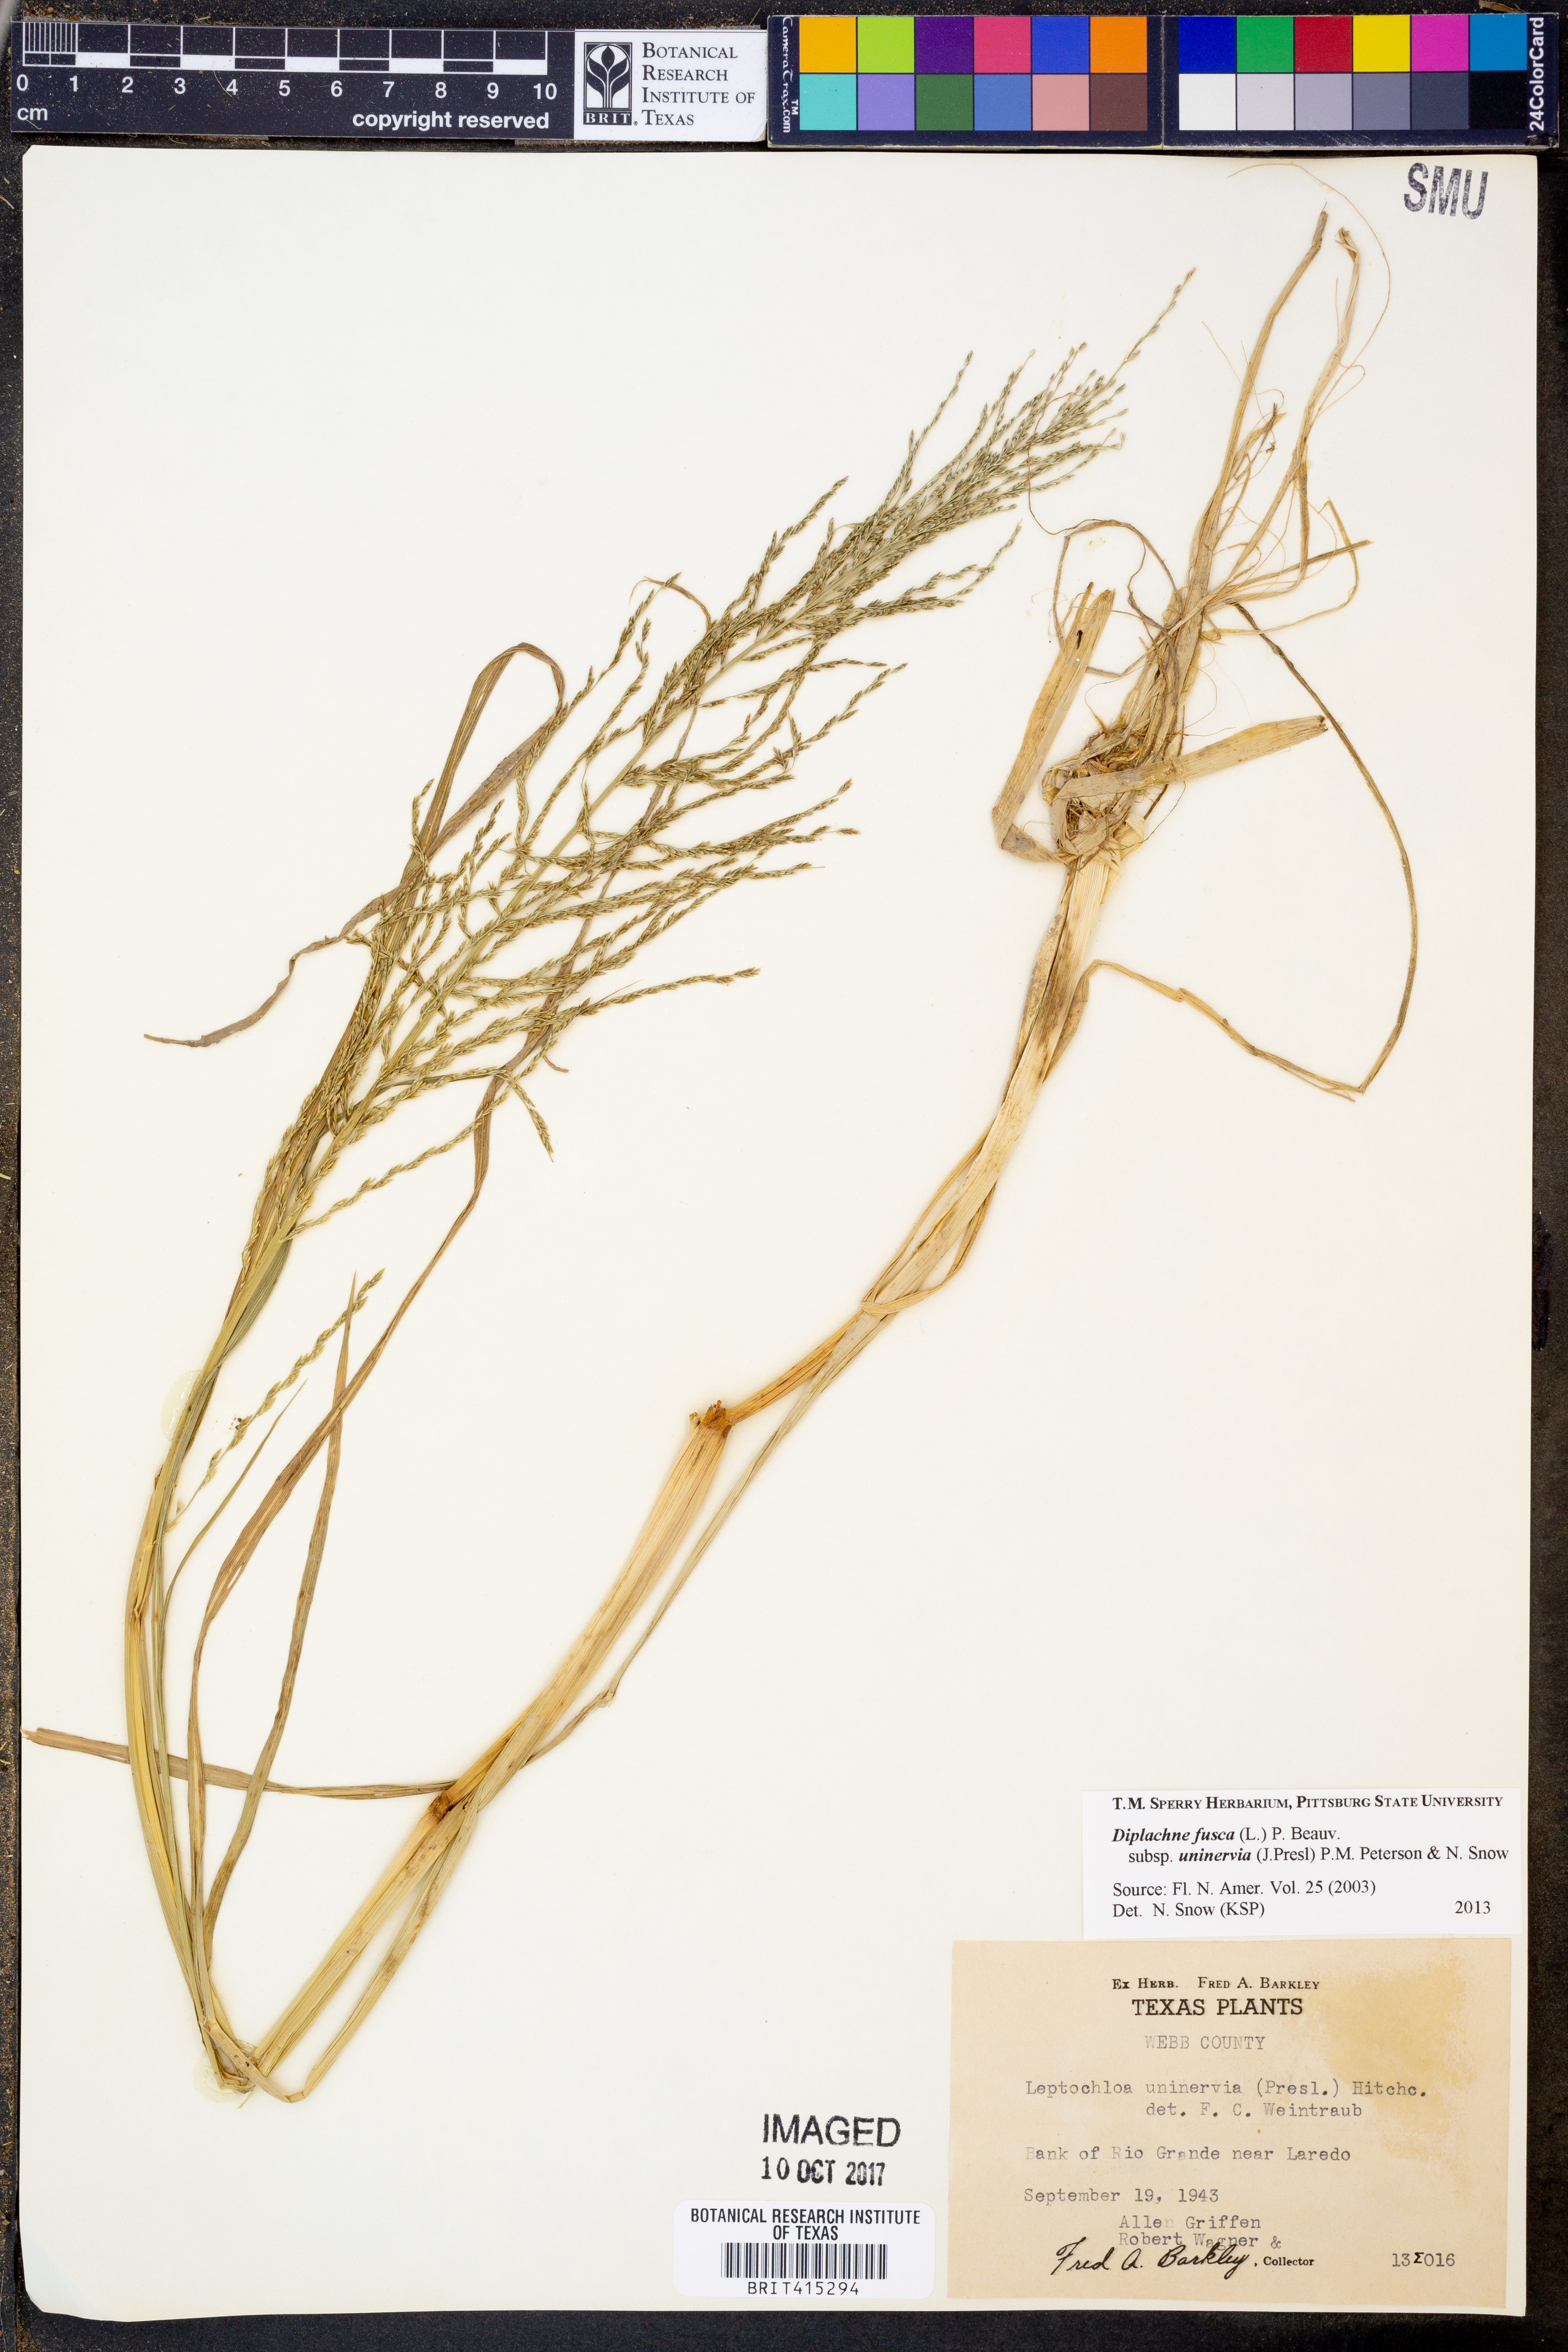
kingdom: Plantae
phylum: Tracheophyta
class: Liliopsida
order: Poales
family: Poaceae
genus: Diplachne
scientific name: Diplachne fusca
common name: Brown beetle grass
